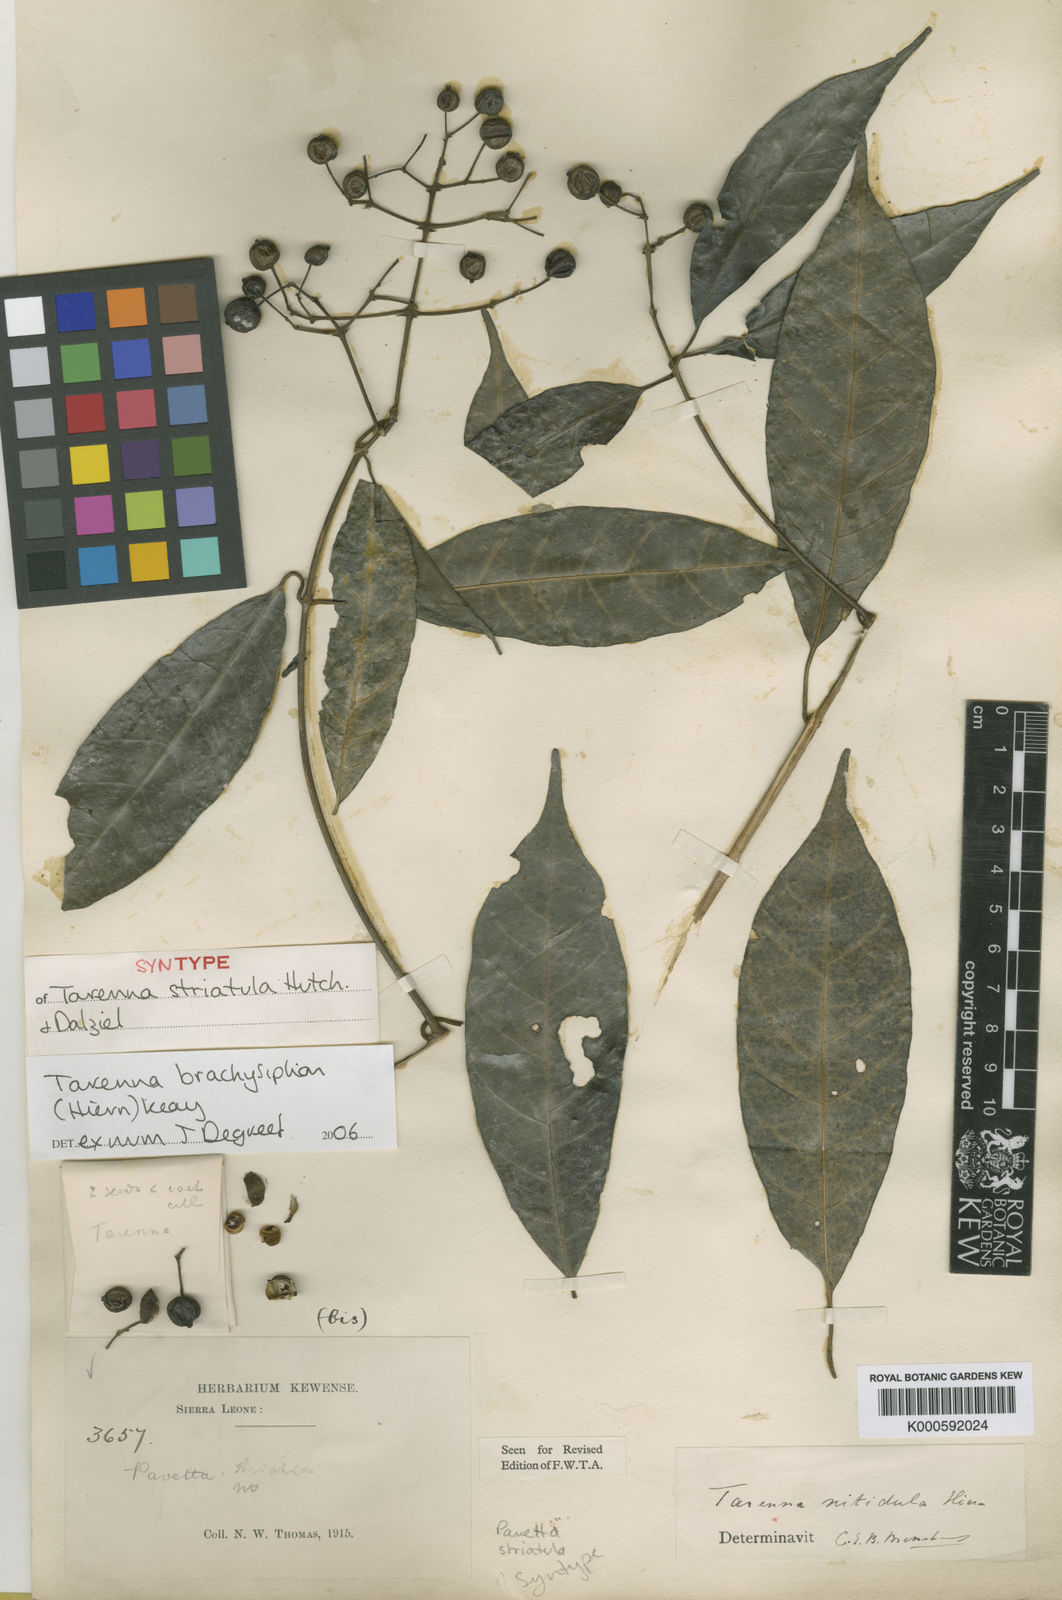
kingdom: Plantae
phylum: Tracheophyta
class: Magnoliopsida
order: Gentianales
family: Rubiaceae
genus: Tarenna
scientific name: Tarenna brachysiphon
